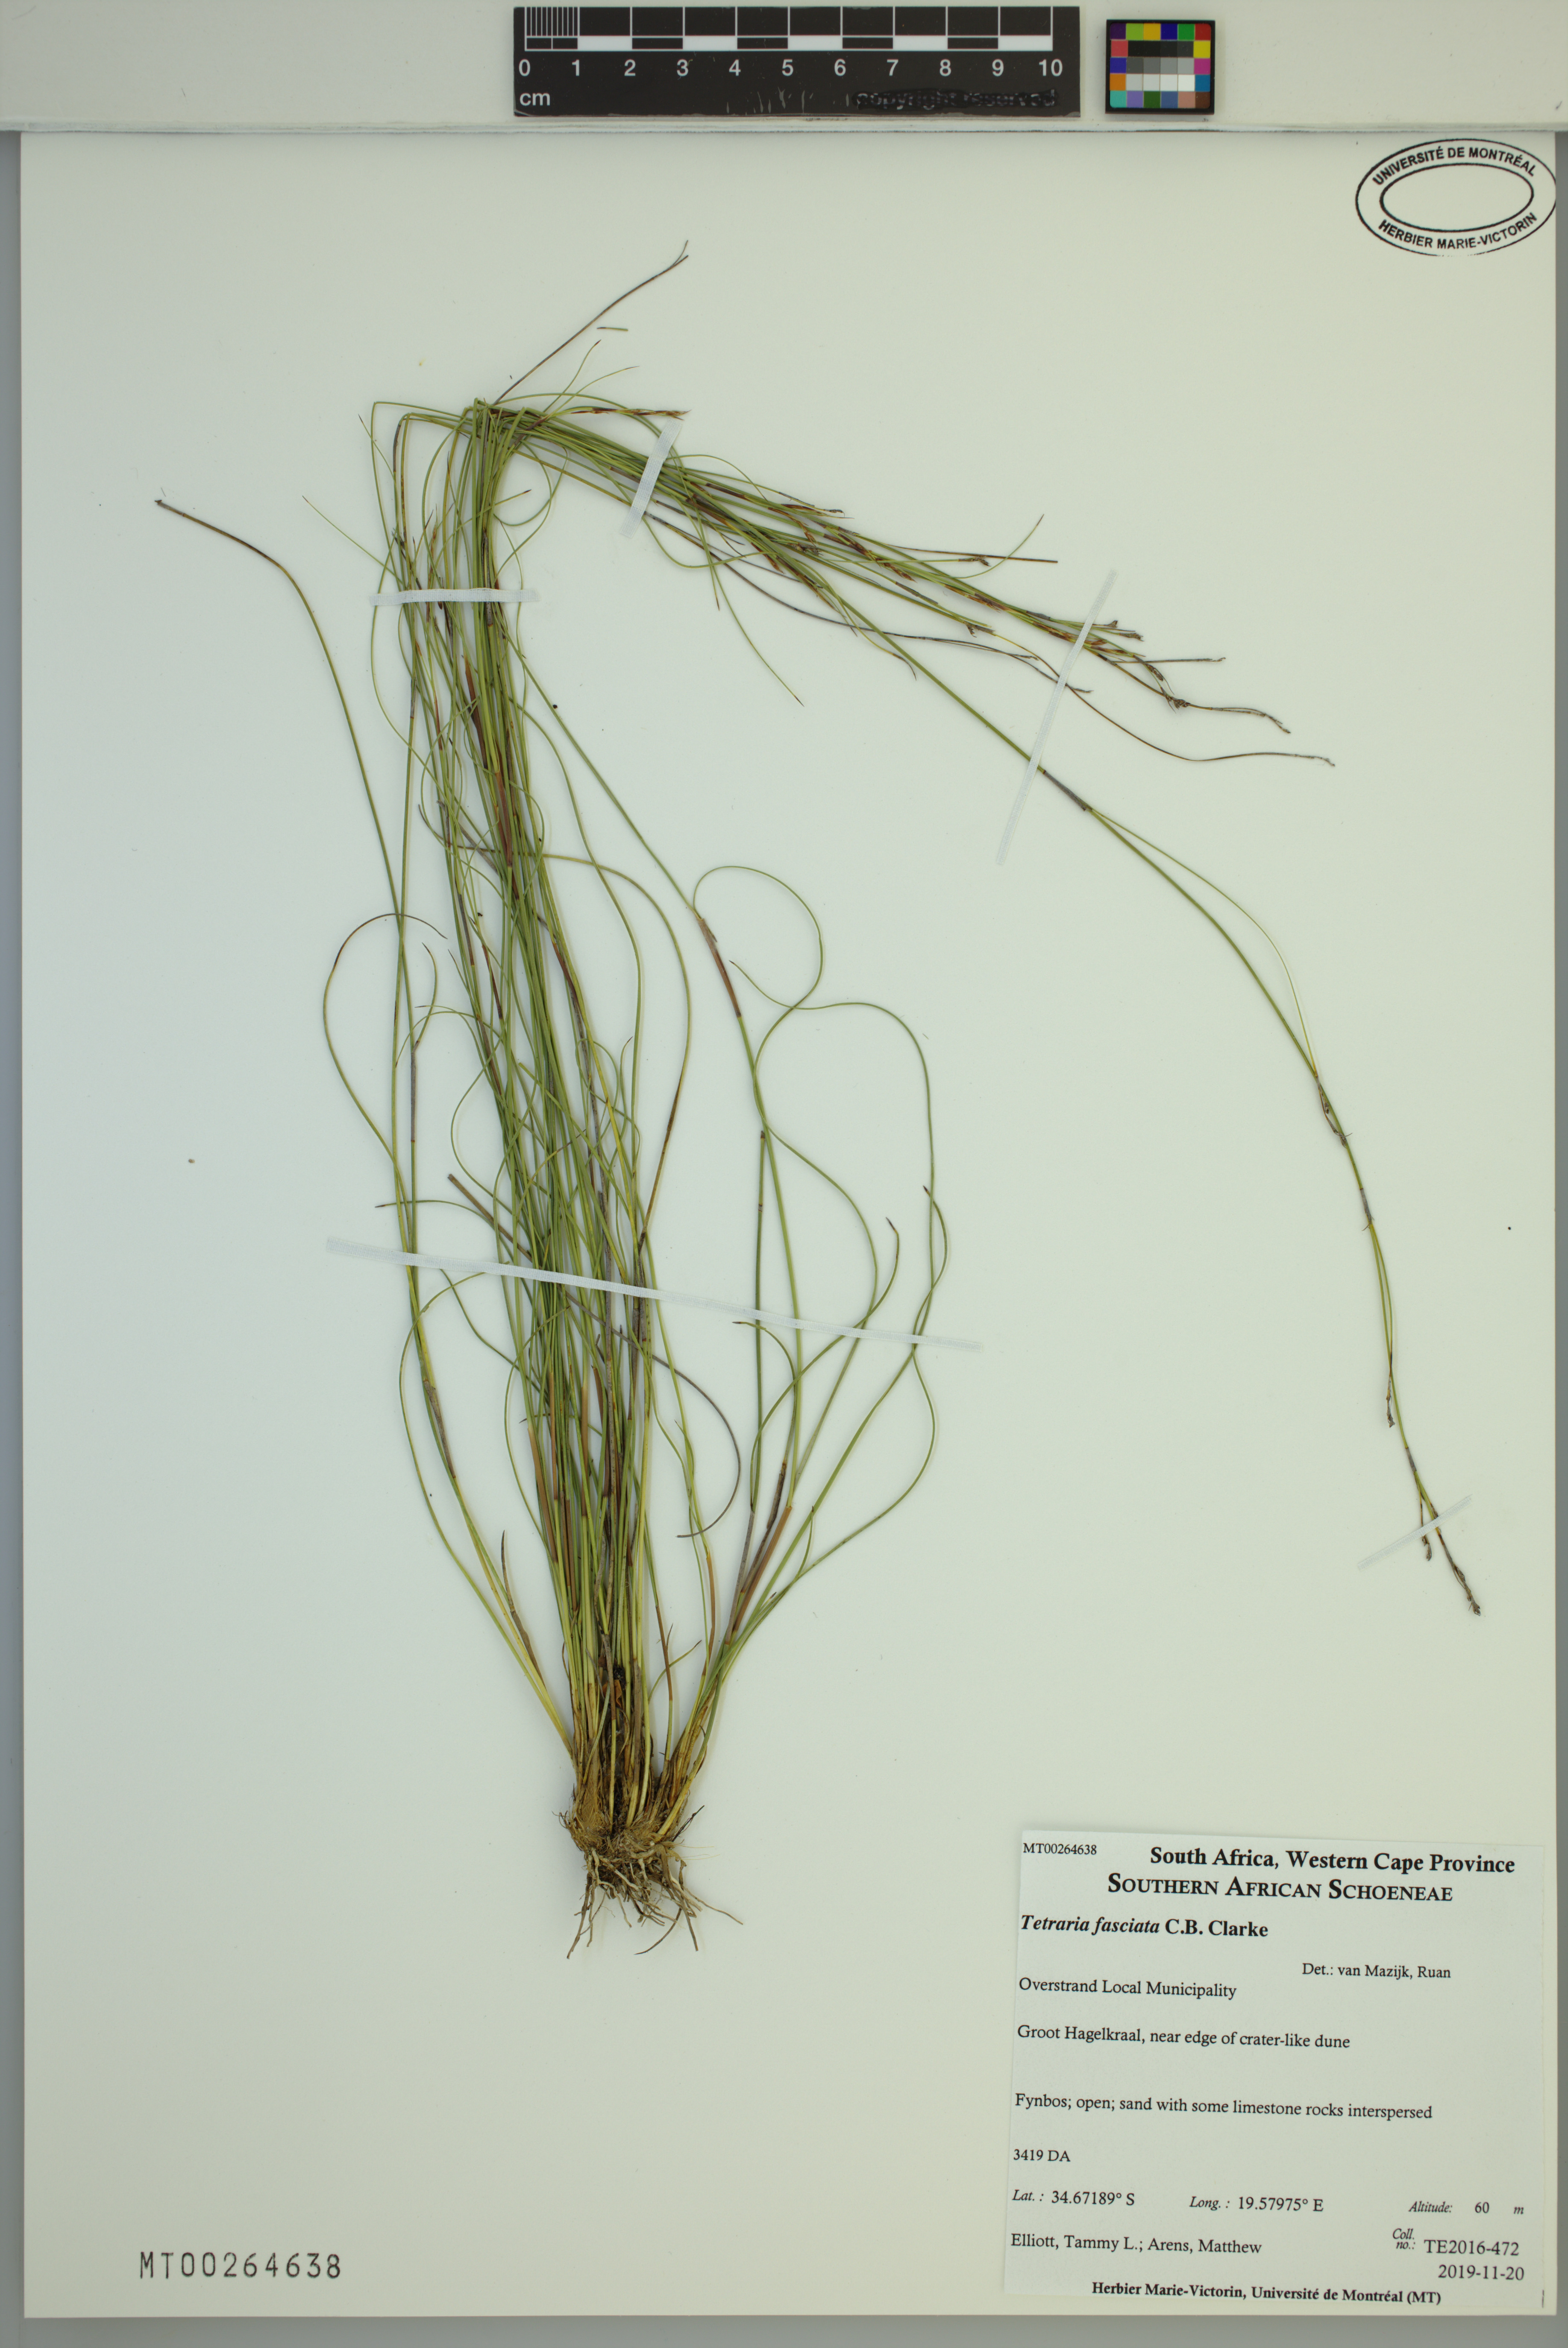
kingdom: Plantae
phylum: Tracheophyta
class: Liliopsida
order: Poales
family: Cyperaceae
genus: Tetraria
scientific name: Tetraria fasciata
